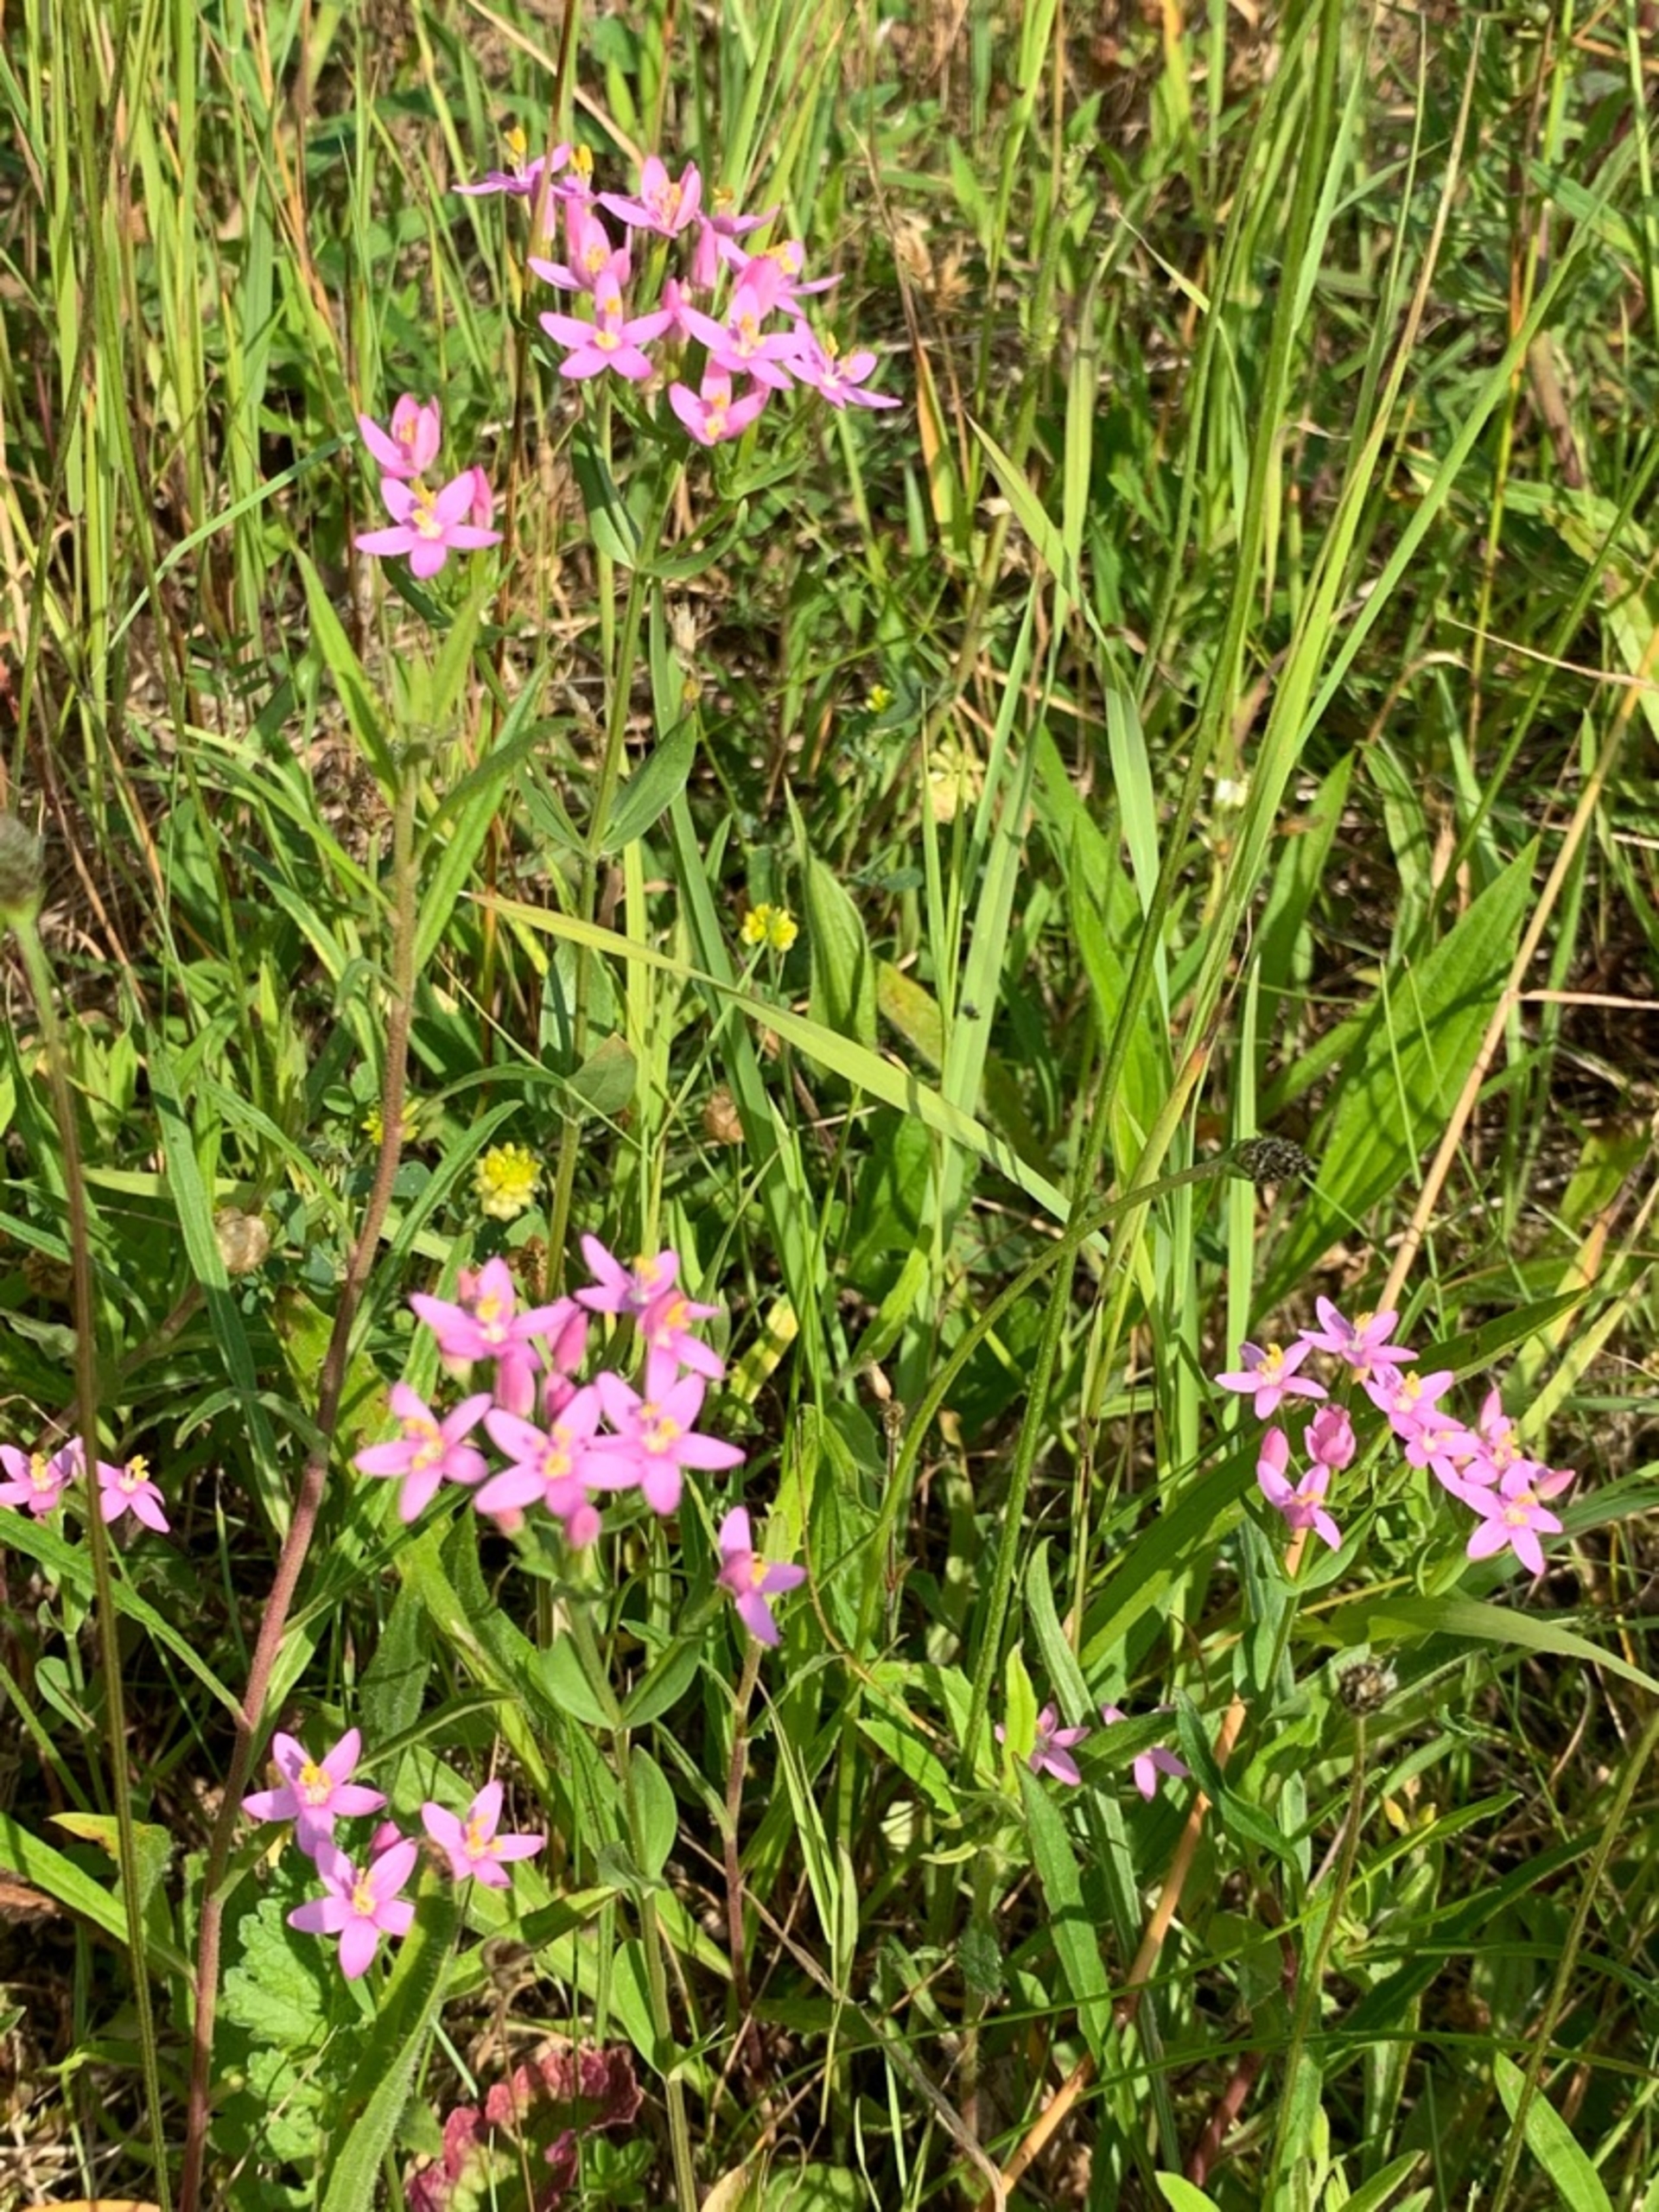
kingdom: Plantae
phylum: Tracheophyta
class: Magnoliopsida
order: Gentianales
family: Gentianaceae
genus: Centaurium
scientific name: Centaurium erythraea
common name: Mark-tusindgylden
